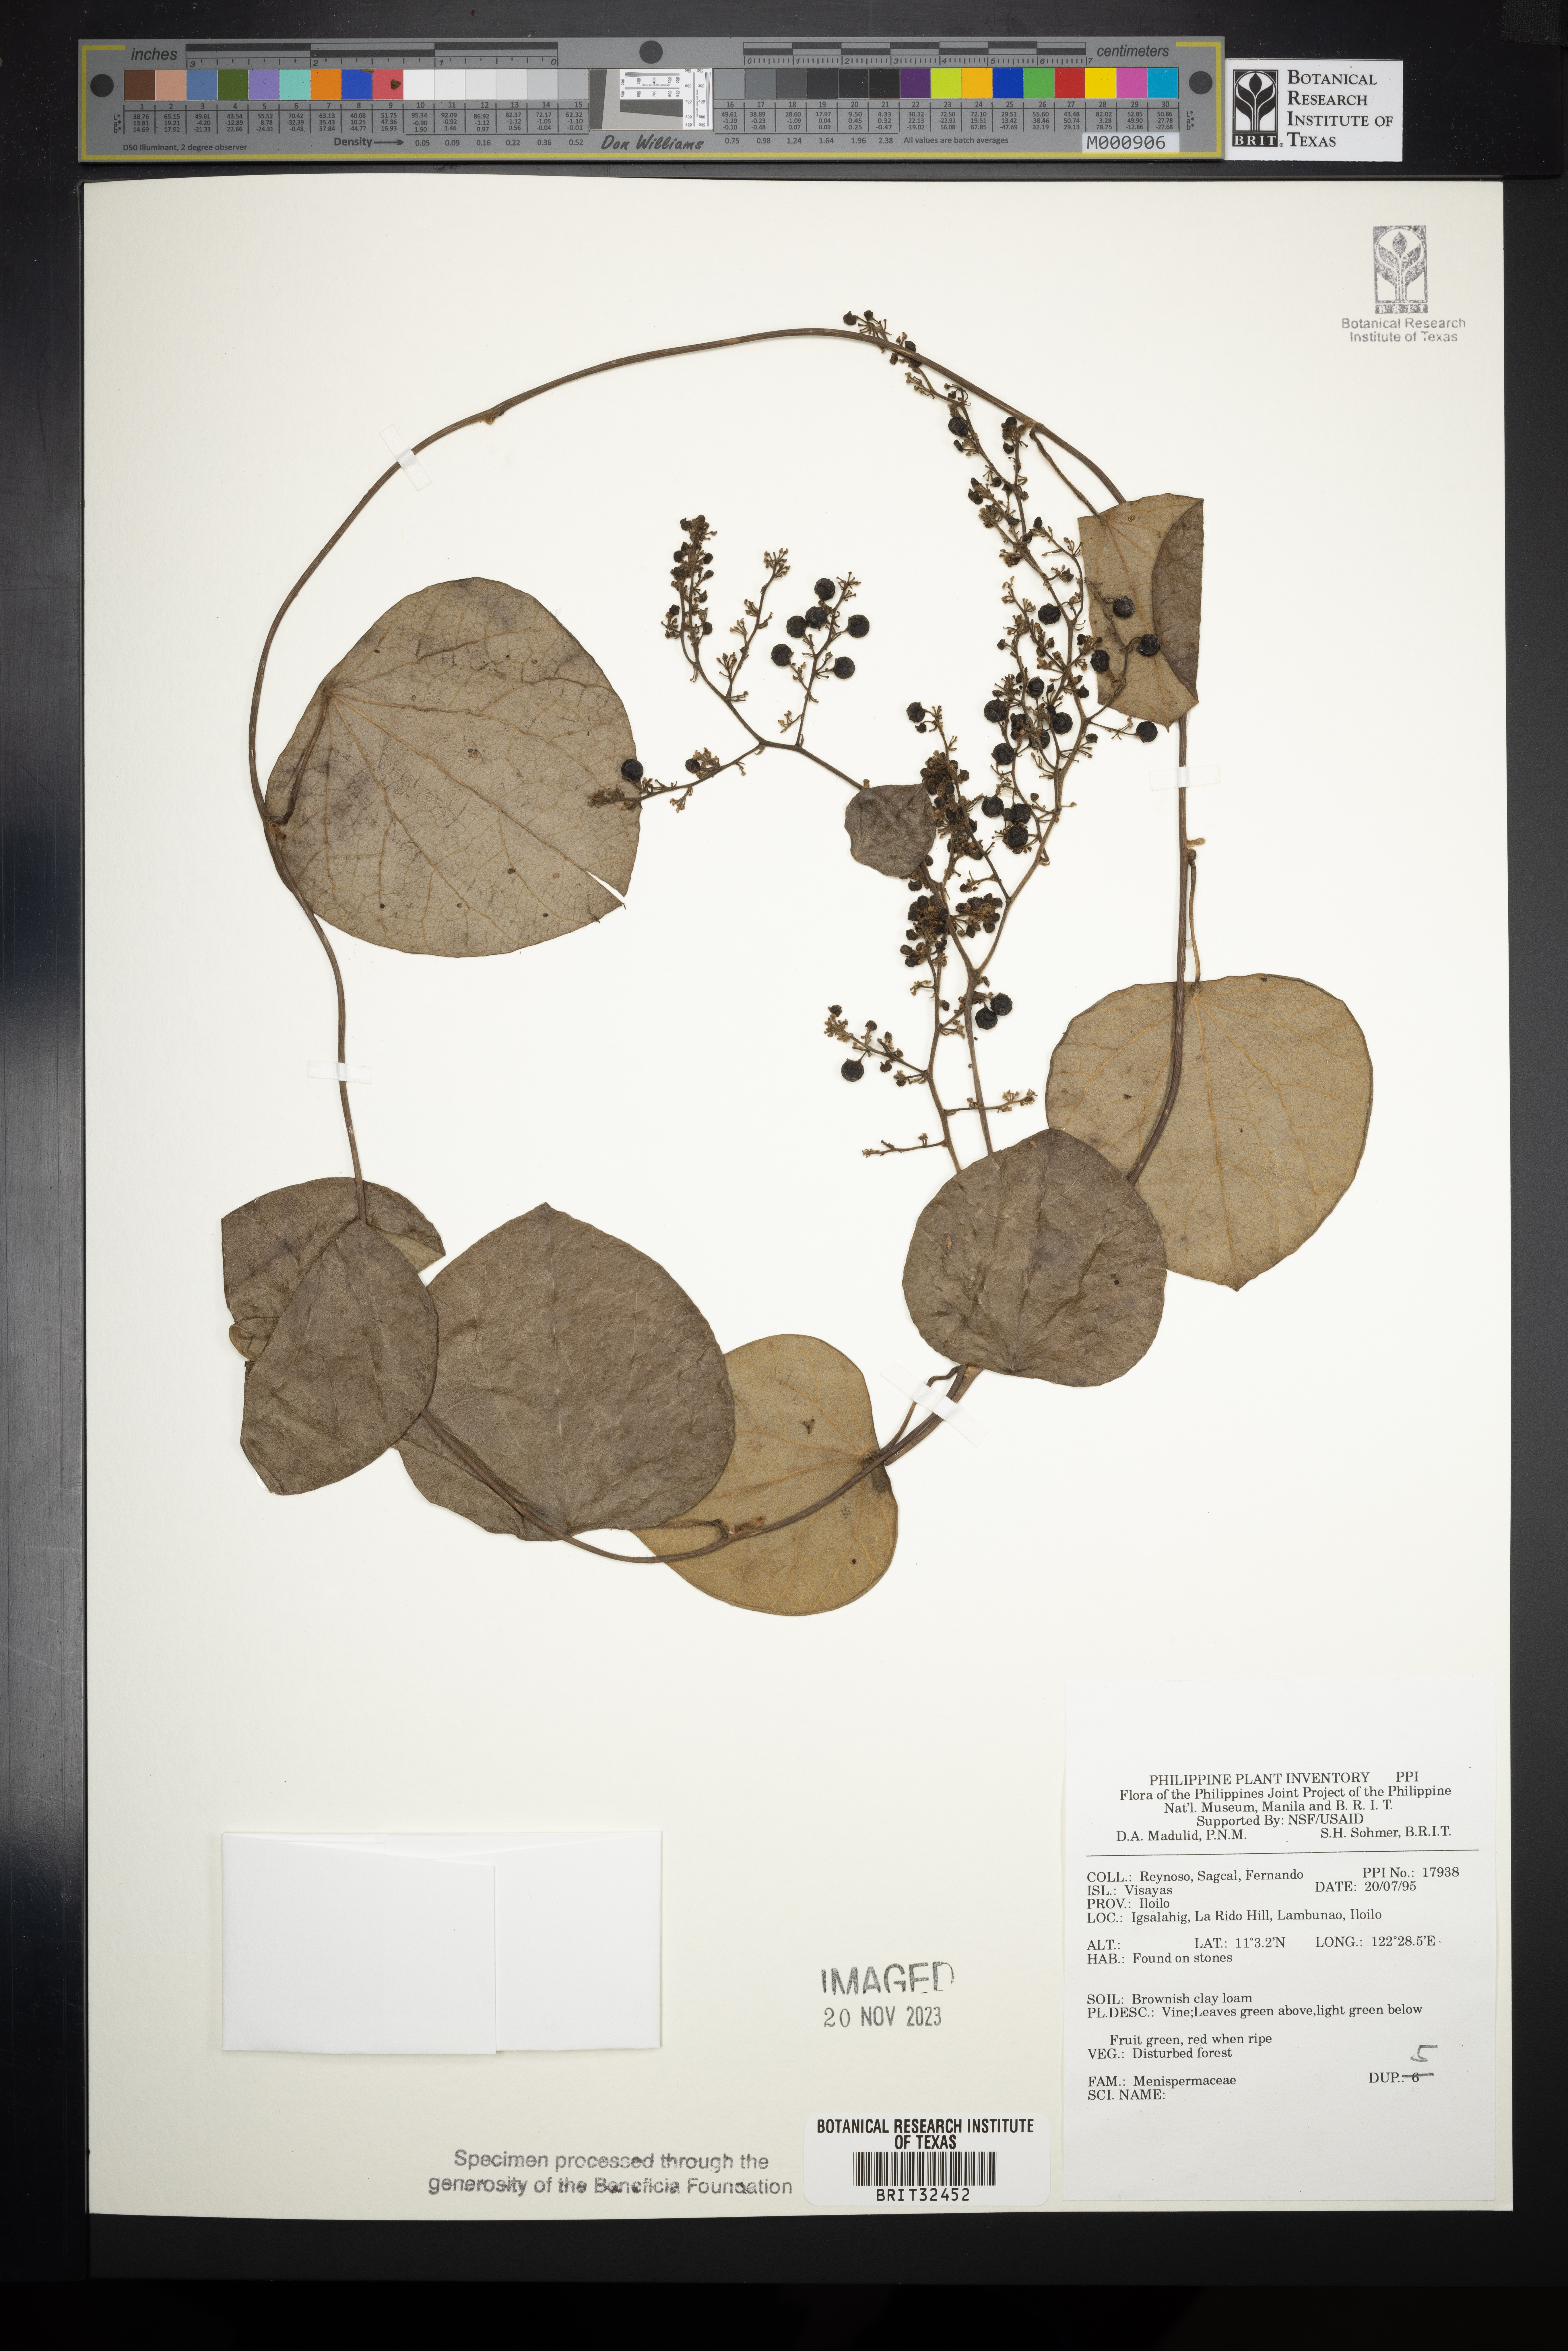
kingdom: Plantae
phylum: Tracheophyta
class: Magnoliopsida
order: Ranunculales
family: Menispermaceae
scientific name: Menispermaceae
